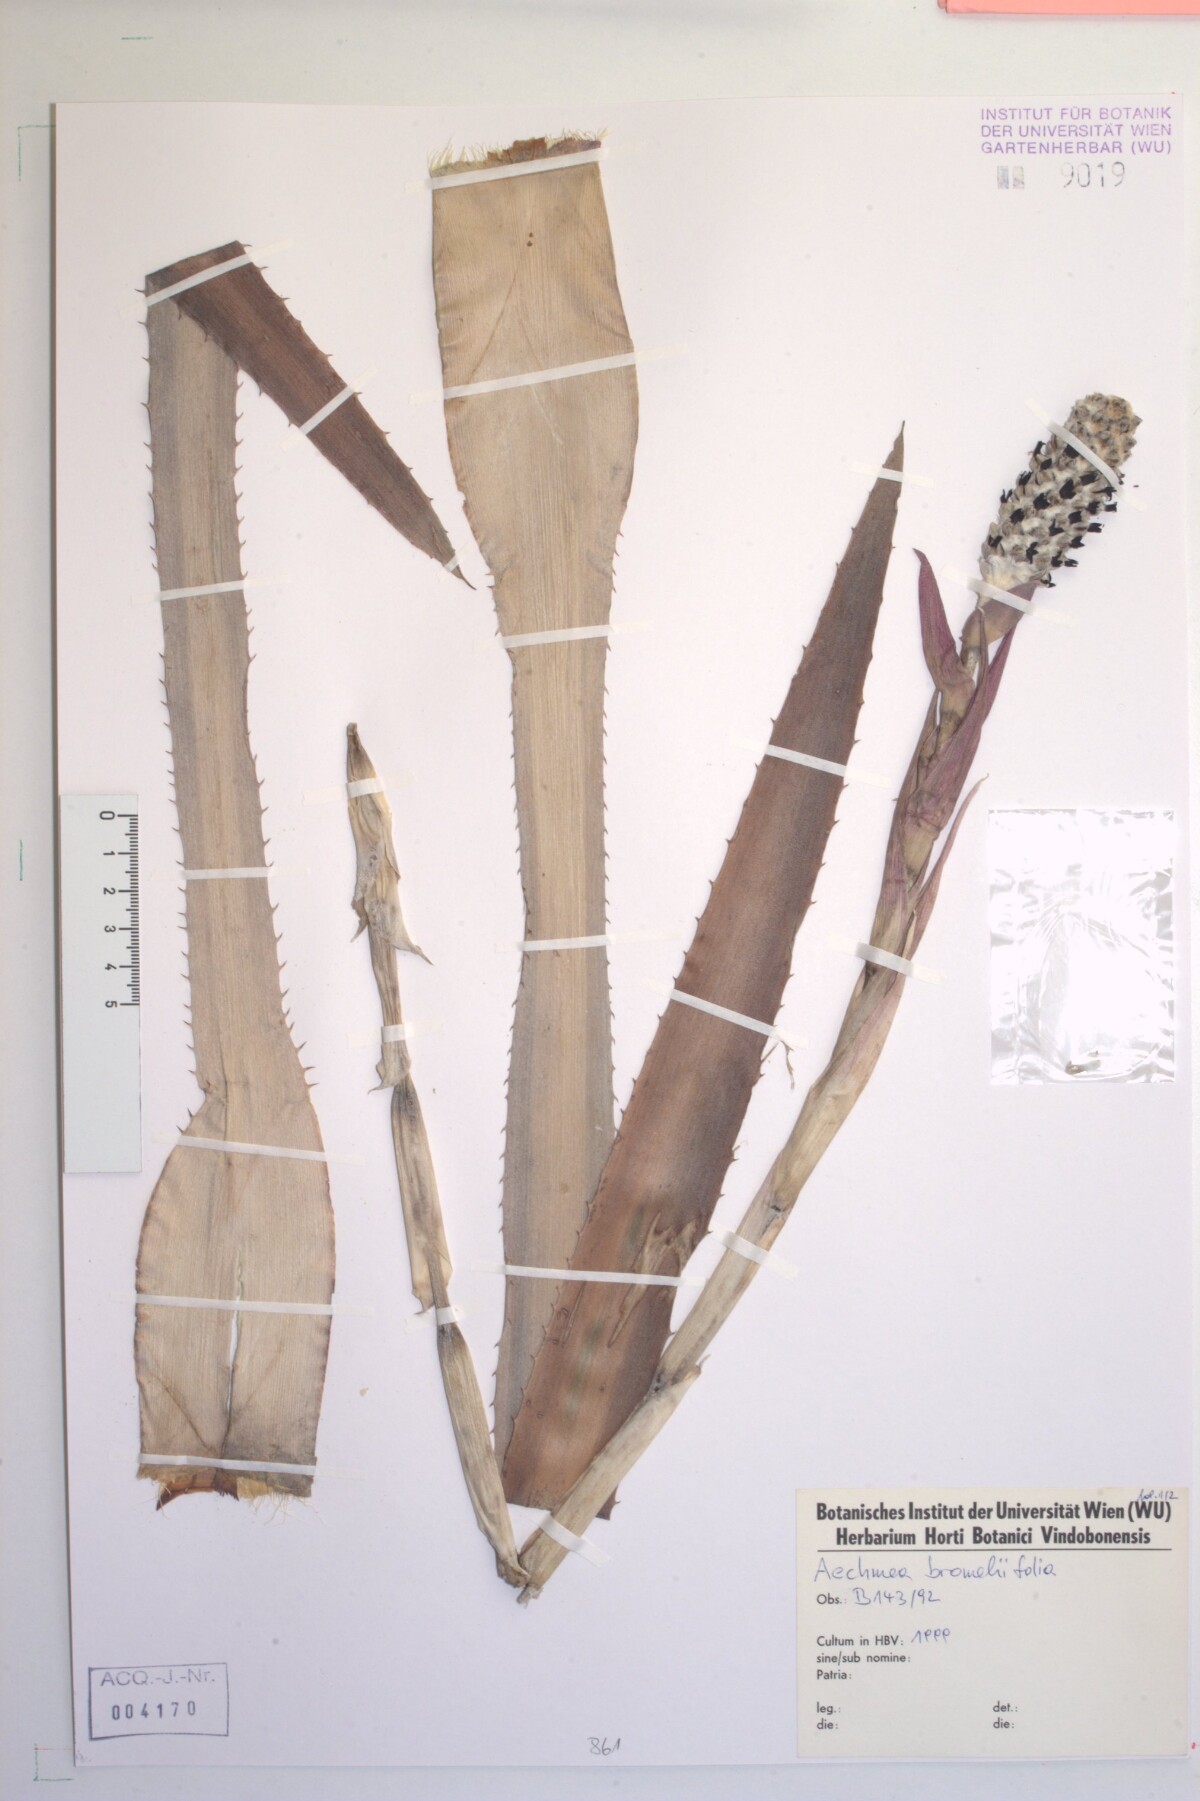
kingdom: Plantae
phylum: Tracheophyta
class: Liliopsida
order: Poales
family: Bromeliaceae
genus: Aechmea
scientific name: Aechmea bromeliifolia
